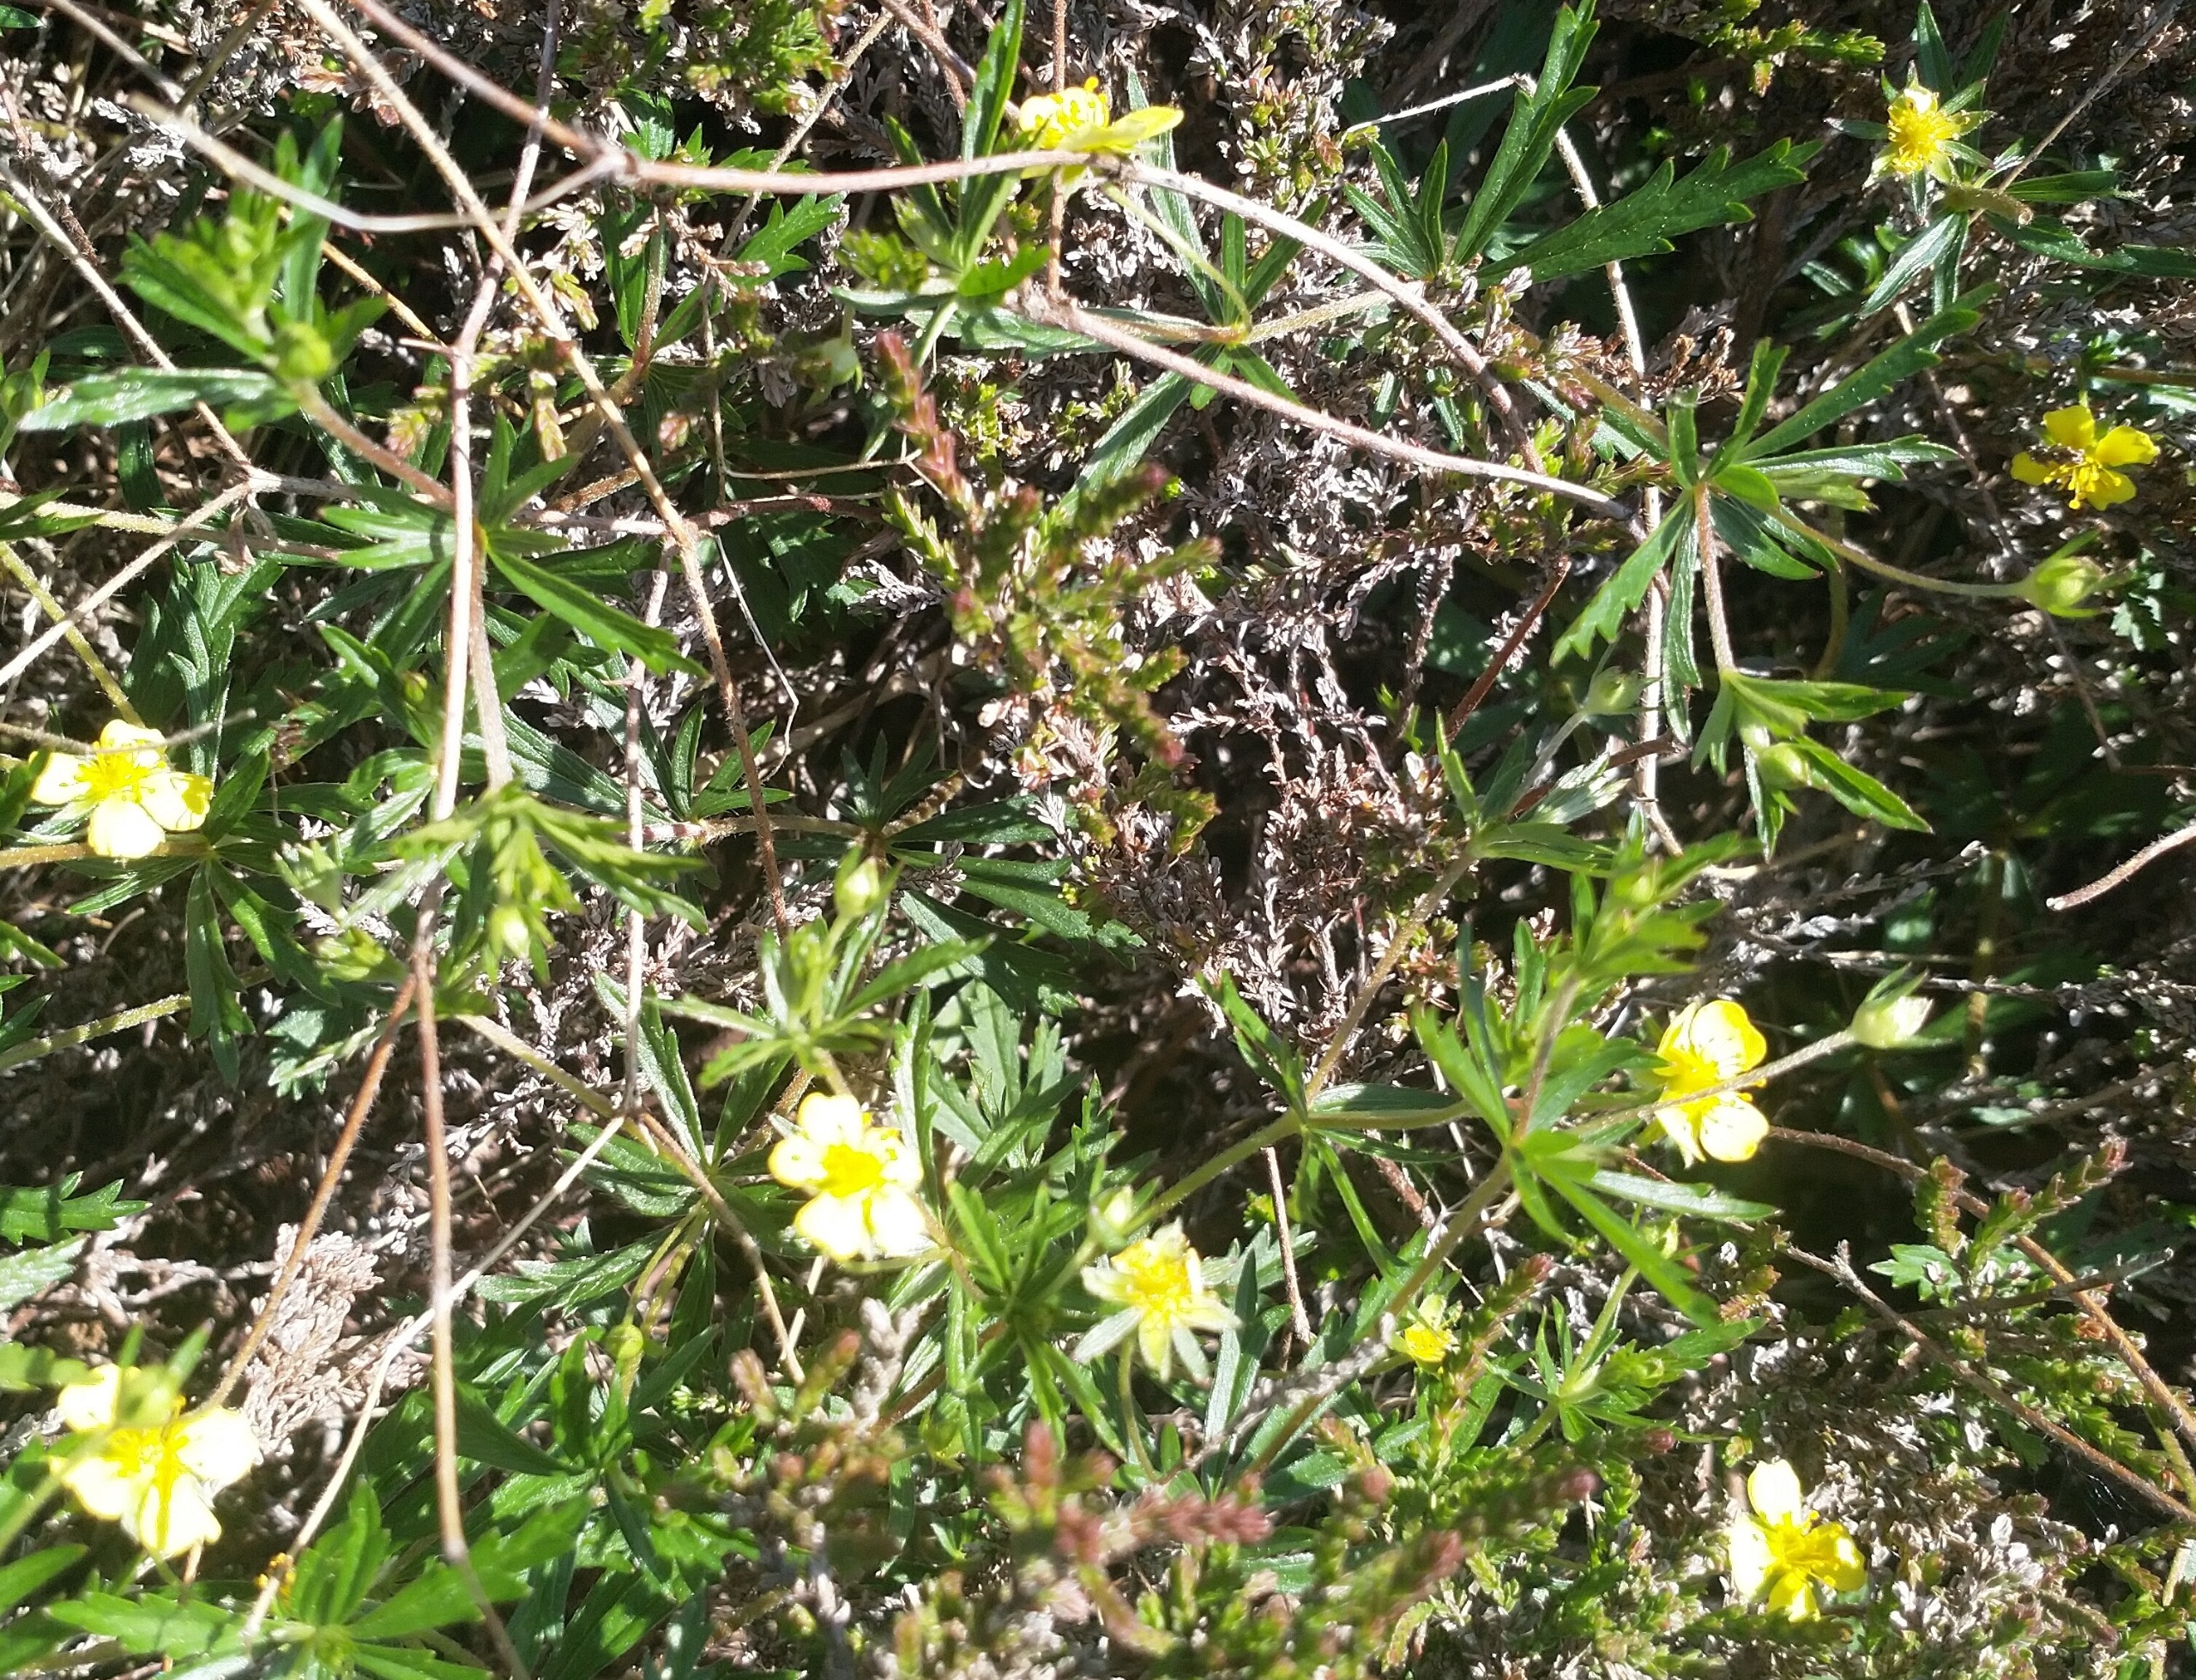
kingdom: Plantae
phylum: Tracheophyta
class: Magnoliopsida
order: Rosales
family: Rosaceae
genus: Potentilla
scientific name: Potentilla erecta
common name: Tormentil
